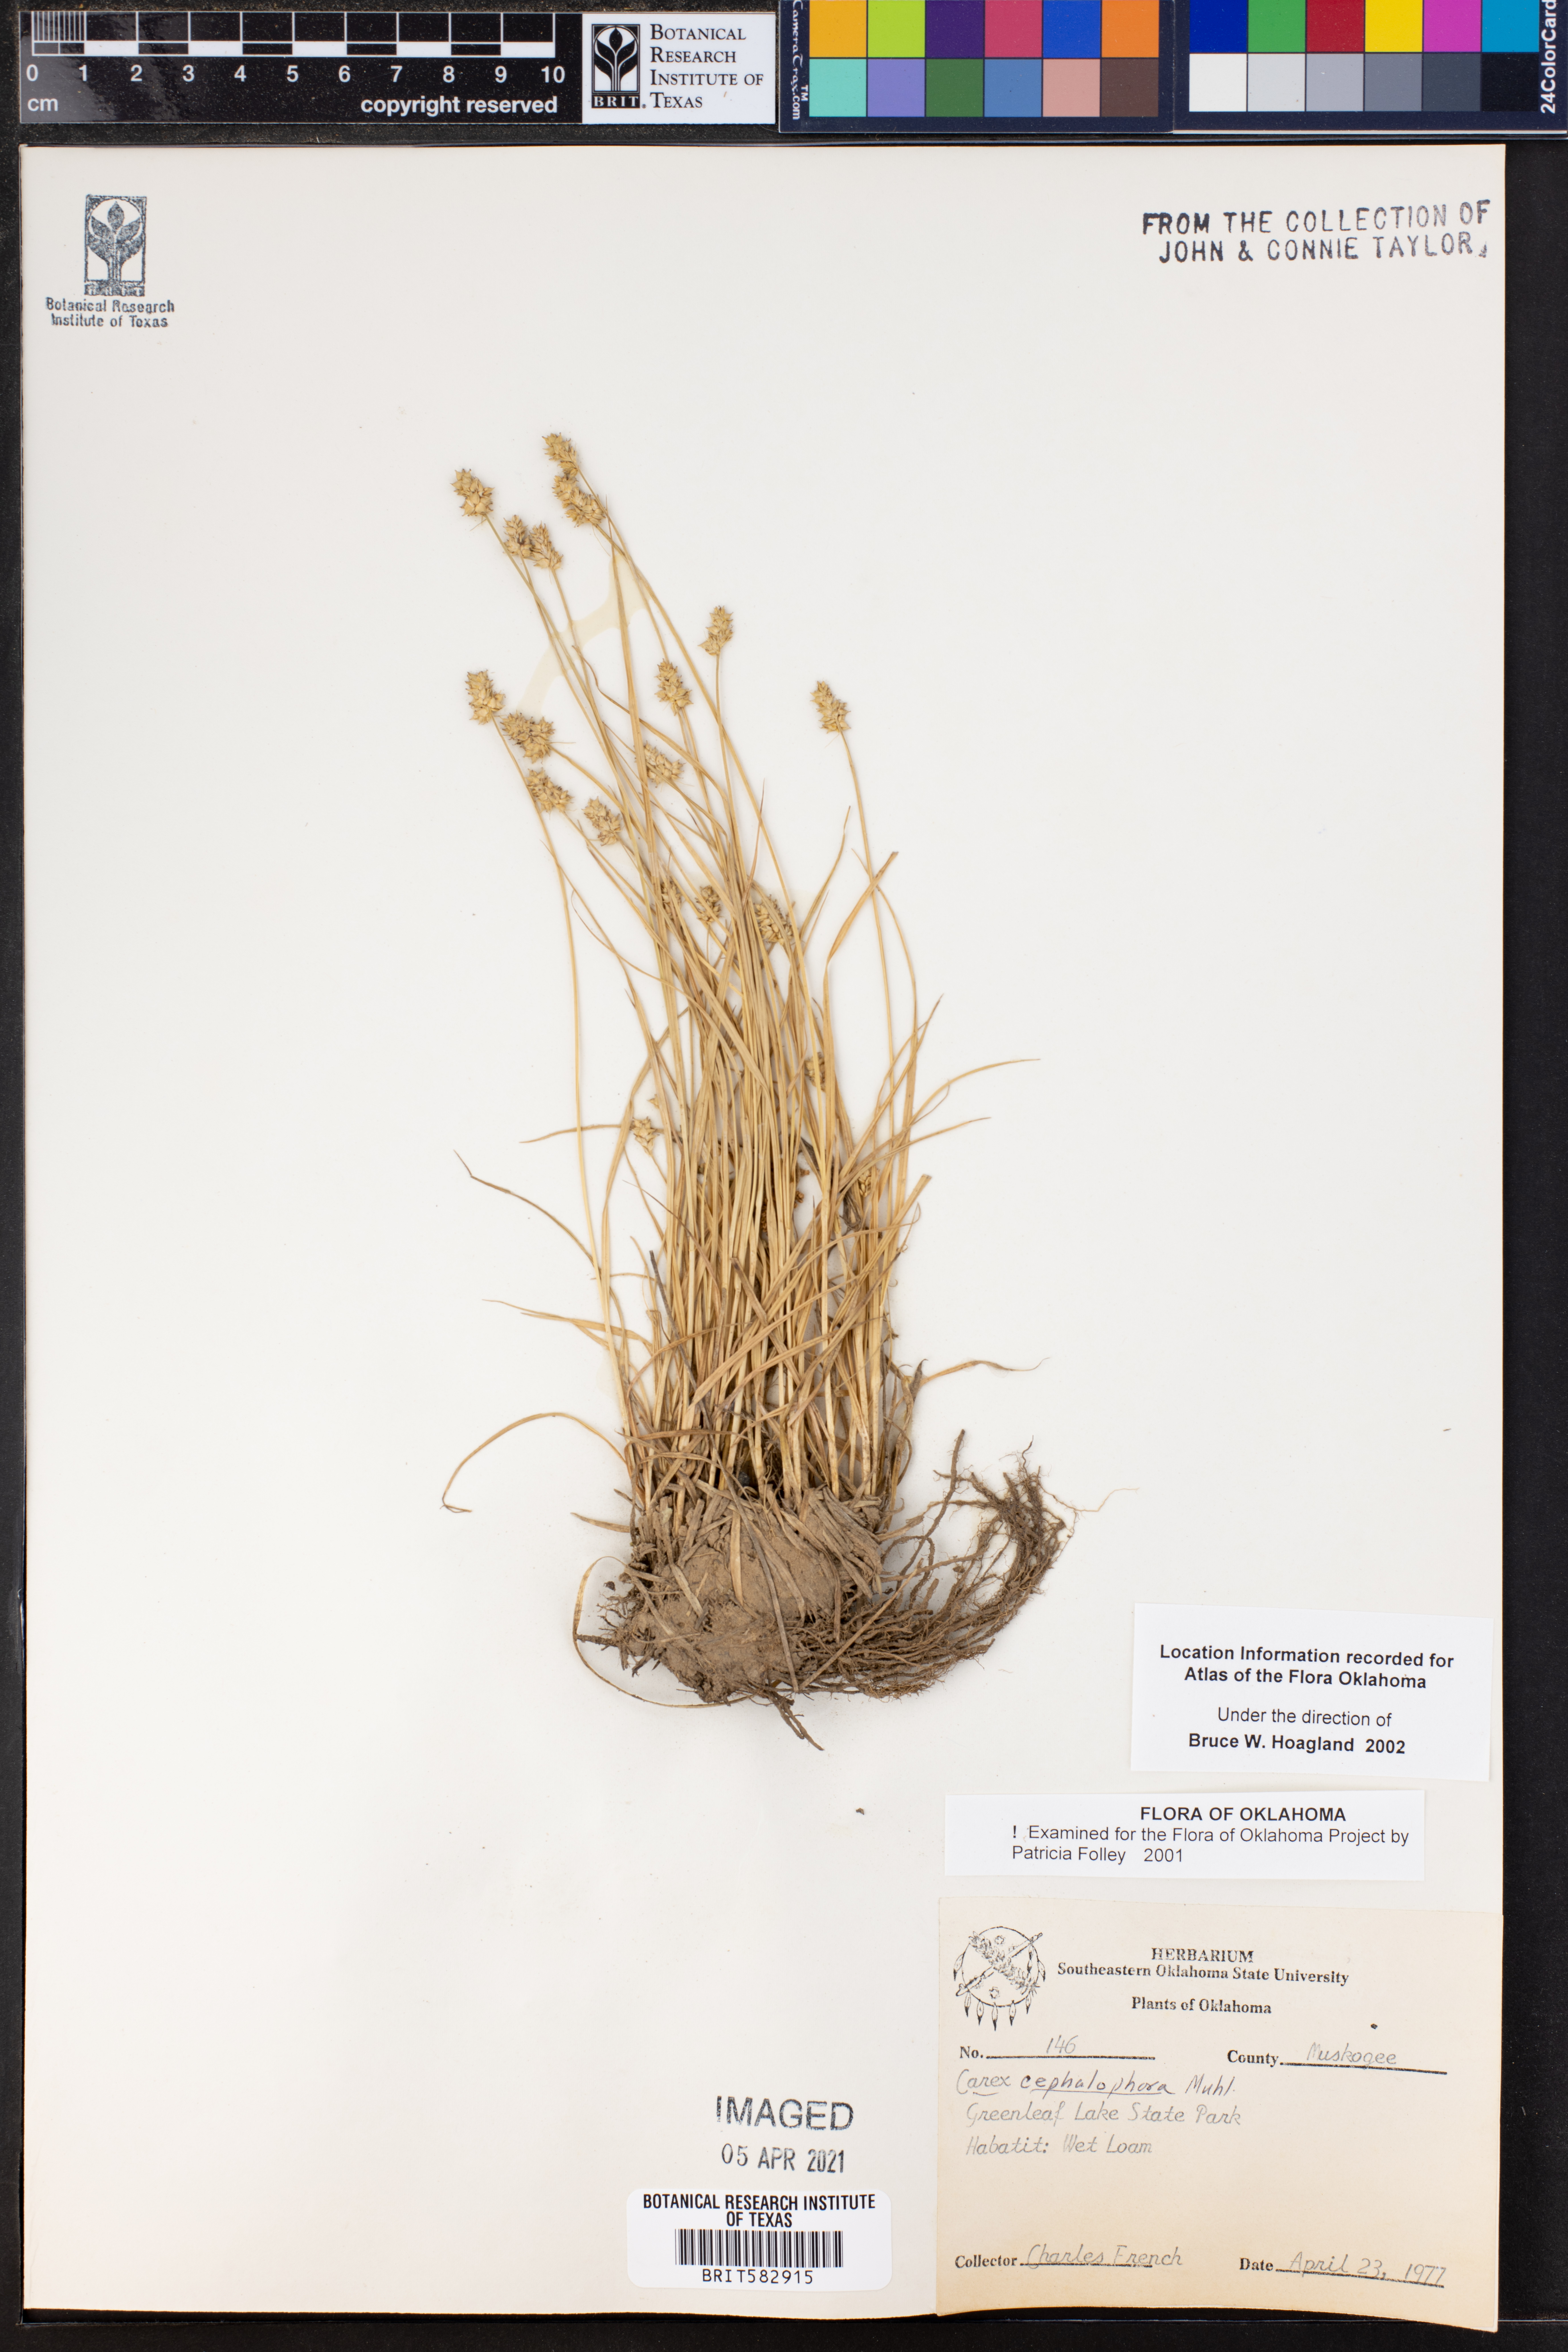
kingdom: Plantae
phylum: Tracheophyta
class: Liliopsida
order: Poales
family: Cyperaceae
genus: Carex
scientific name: Carex cephalophora
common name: Oval-headed sedge
